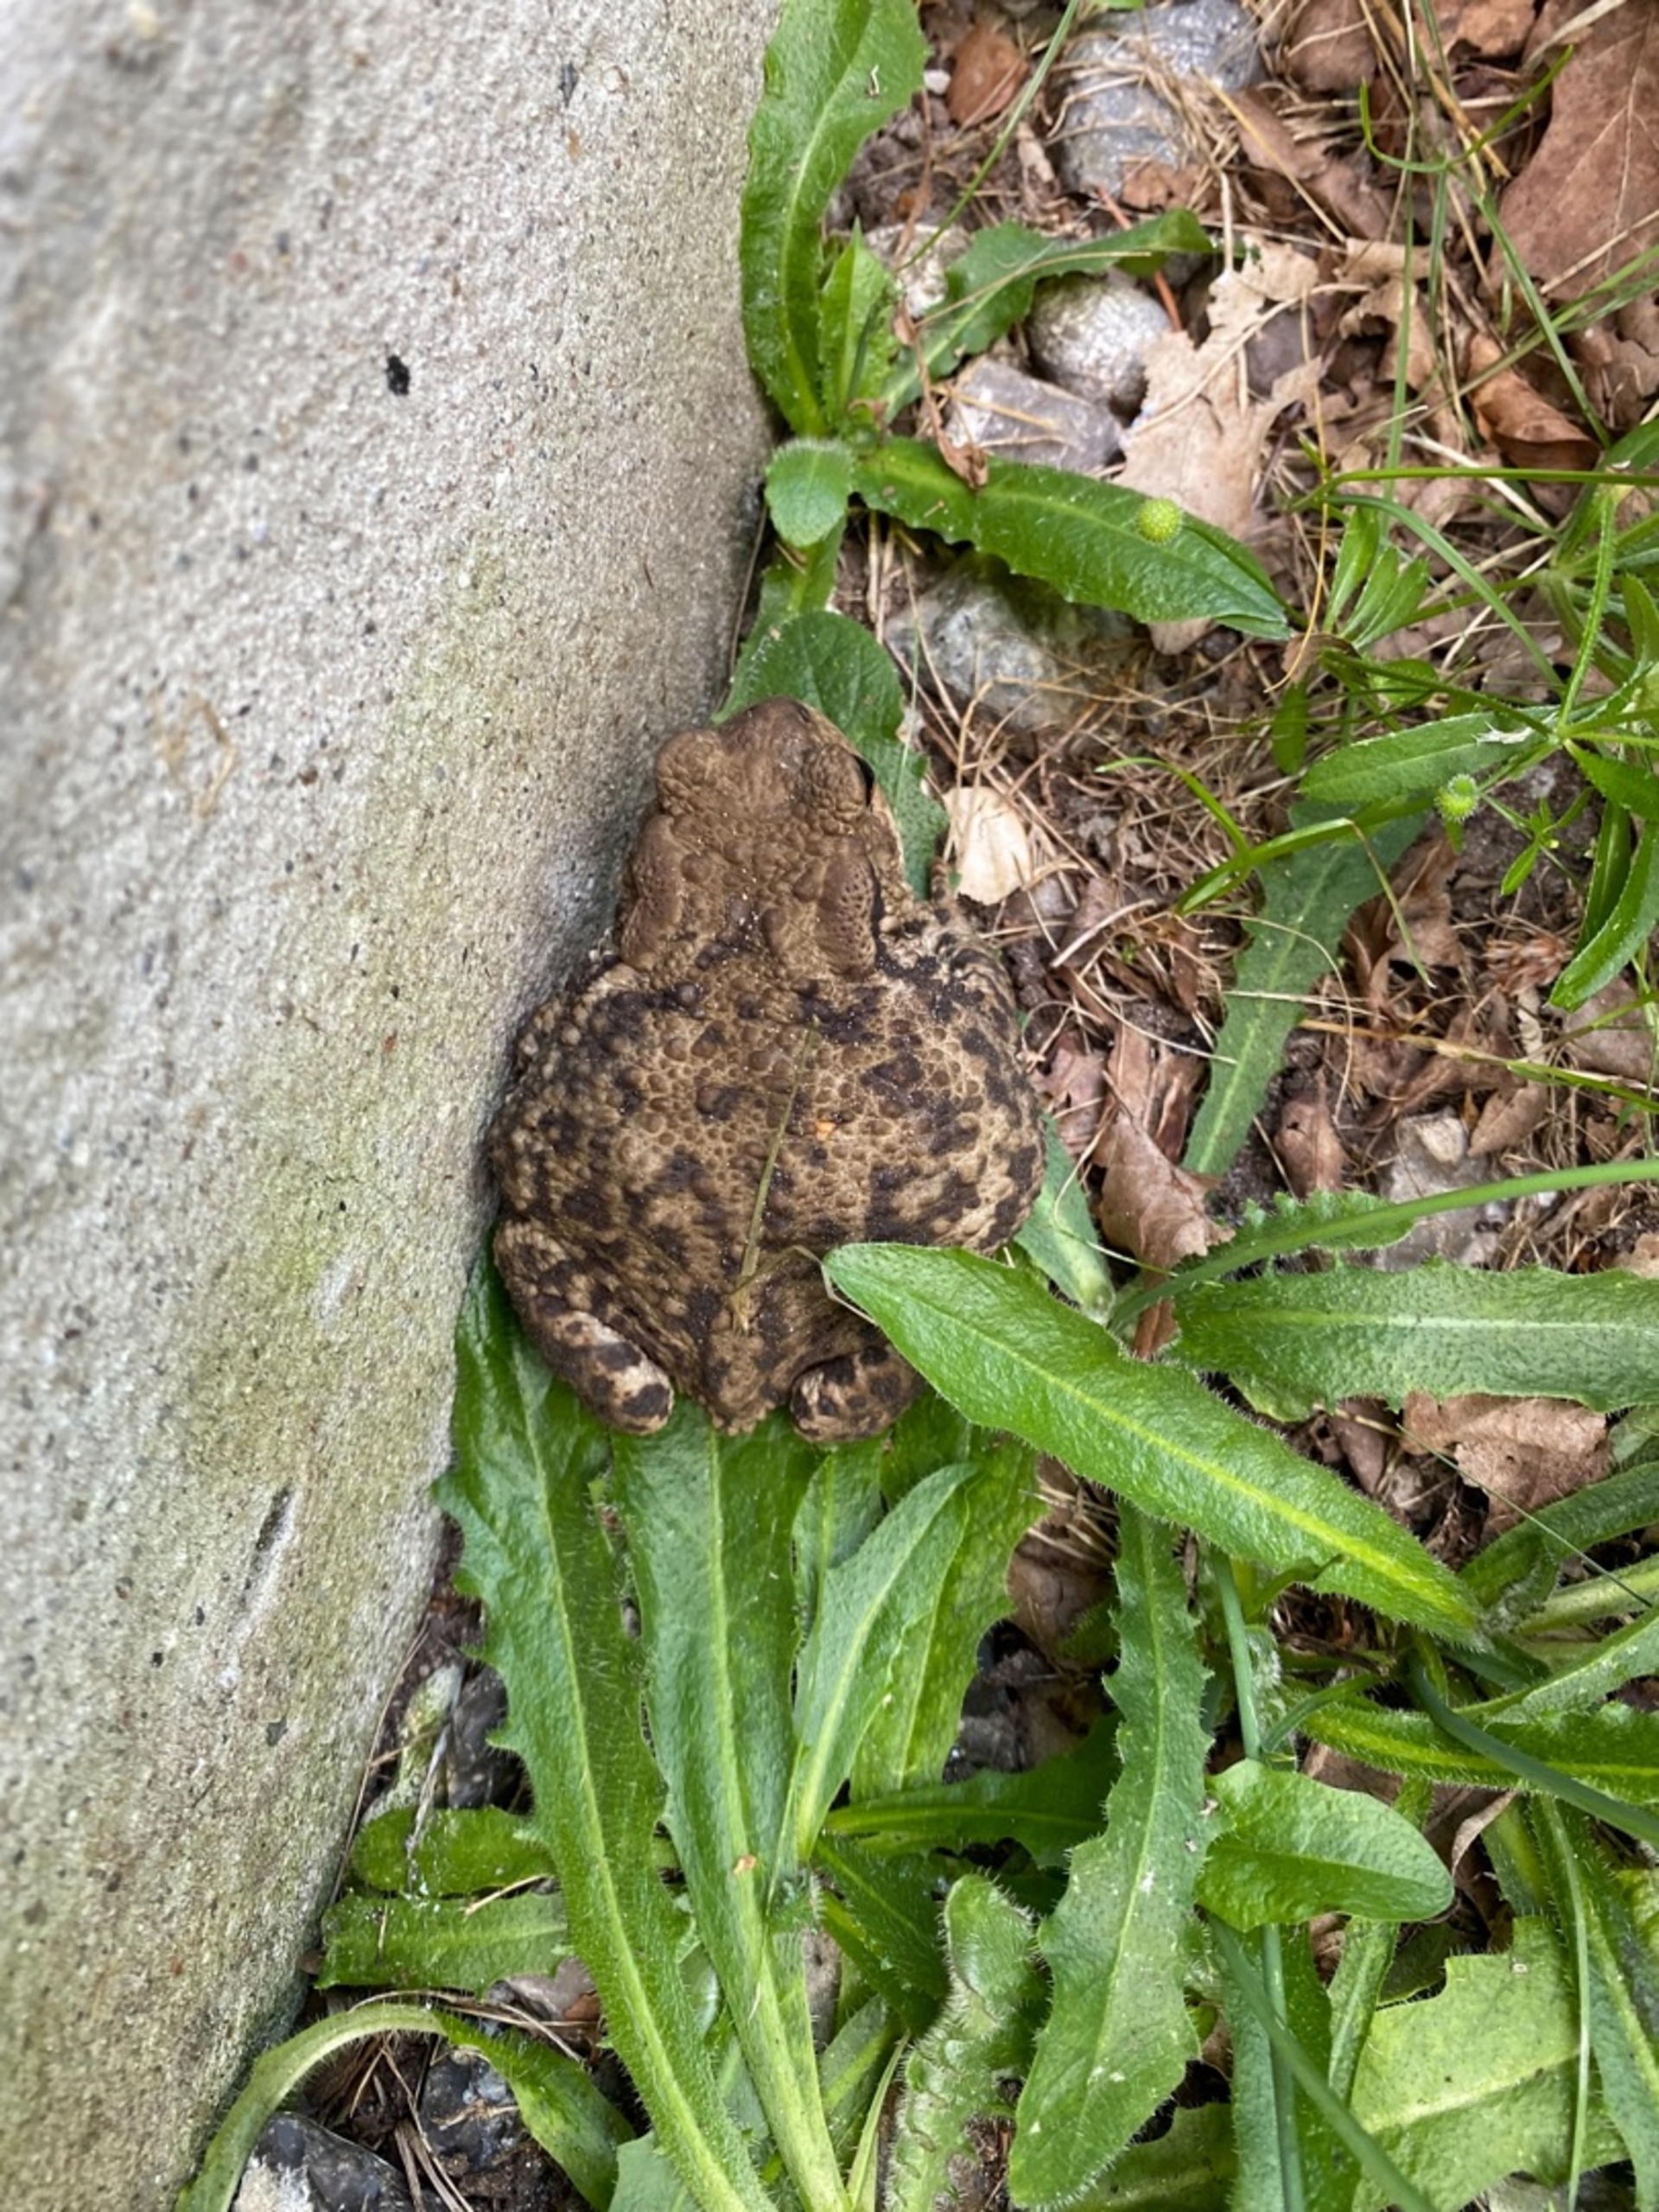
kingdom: Animalia
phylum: Chordata
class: Amphibia
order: Anura
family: Bufonidae
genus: Bufo
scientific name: Bufo bufo
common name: Skrubtudse
